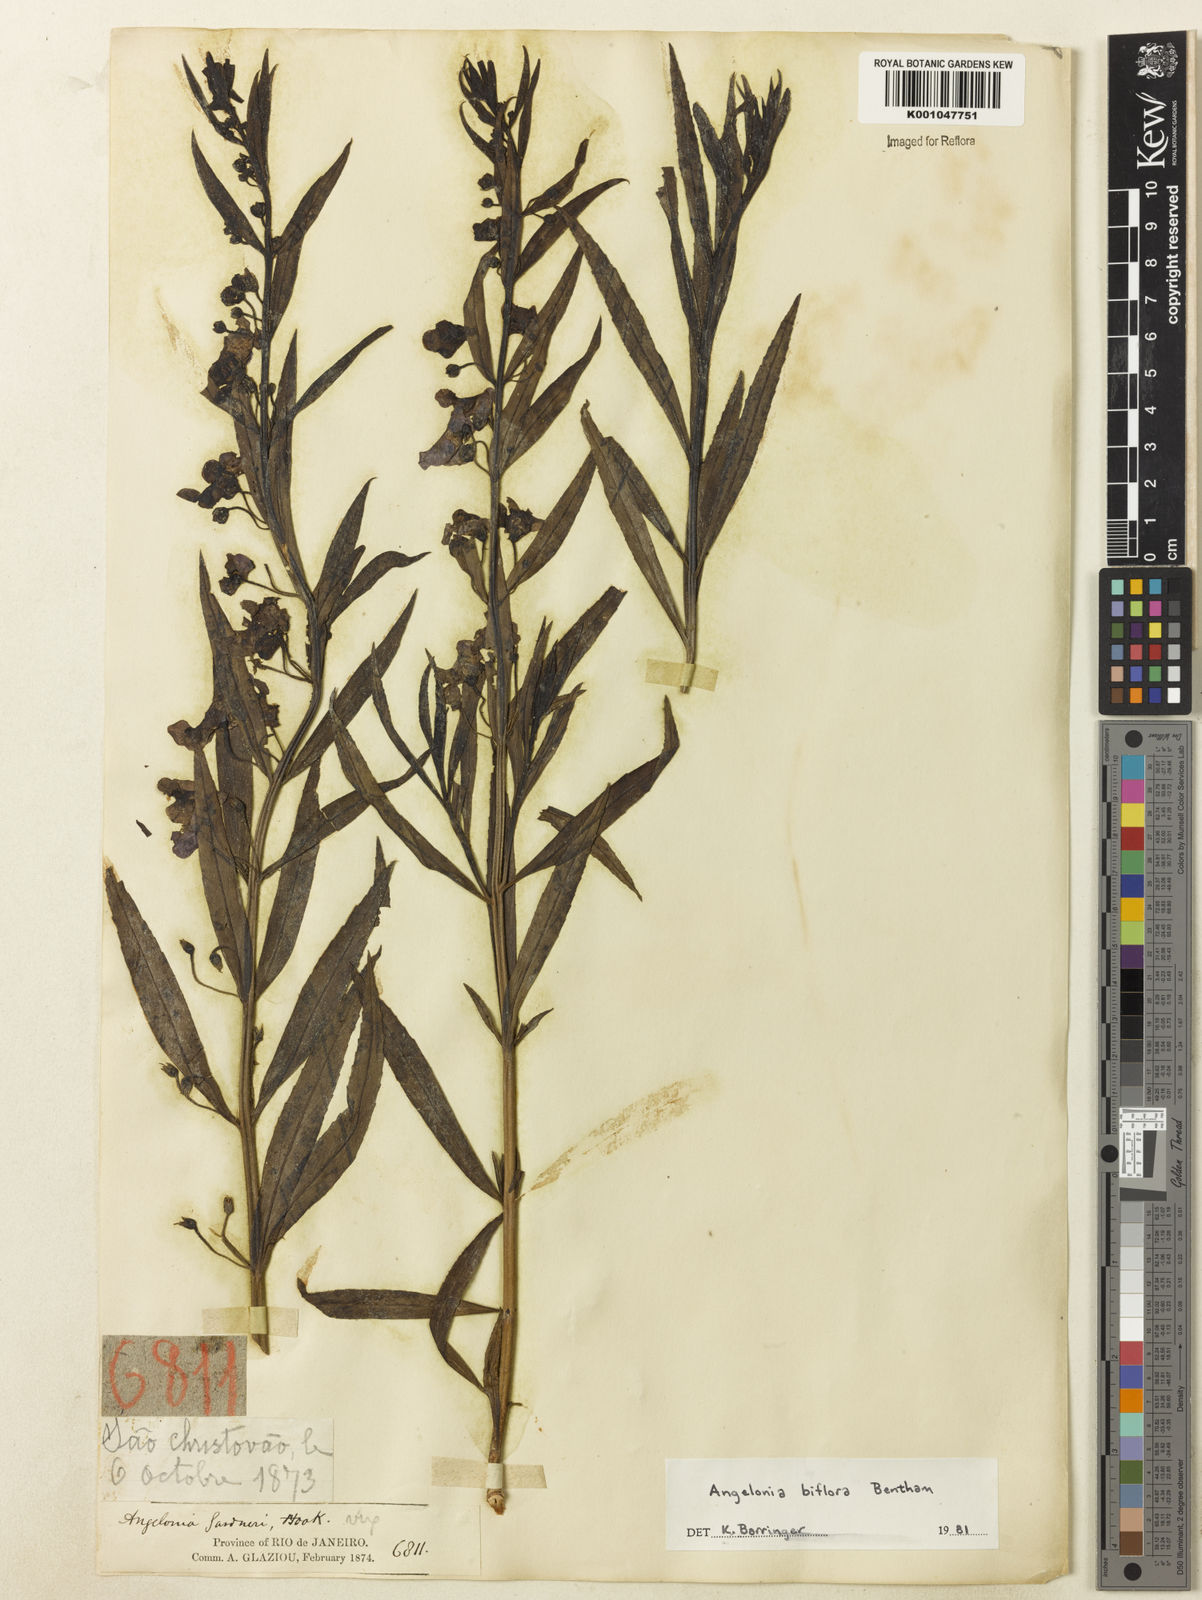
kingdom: Plantae
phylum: Tracheophyta
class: Magnoliopsida
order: Lamiales
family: Plantaginaceae
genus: Angelonia
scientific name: Angelonia biflora
